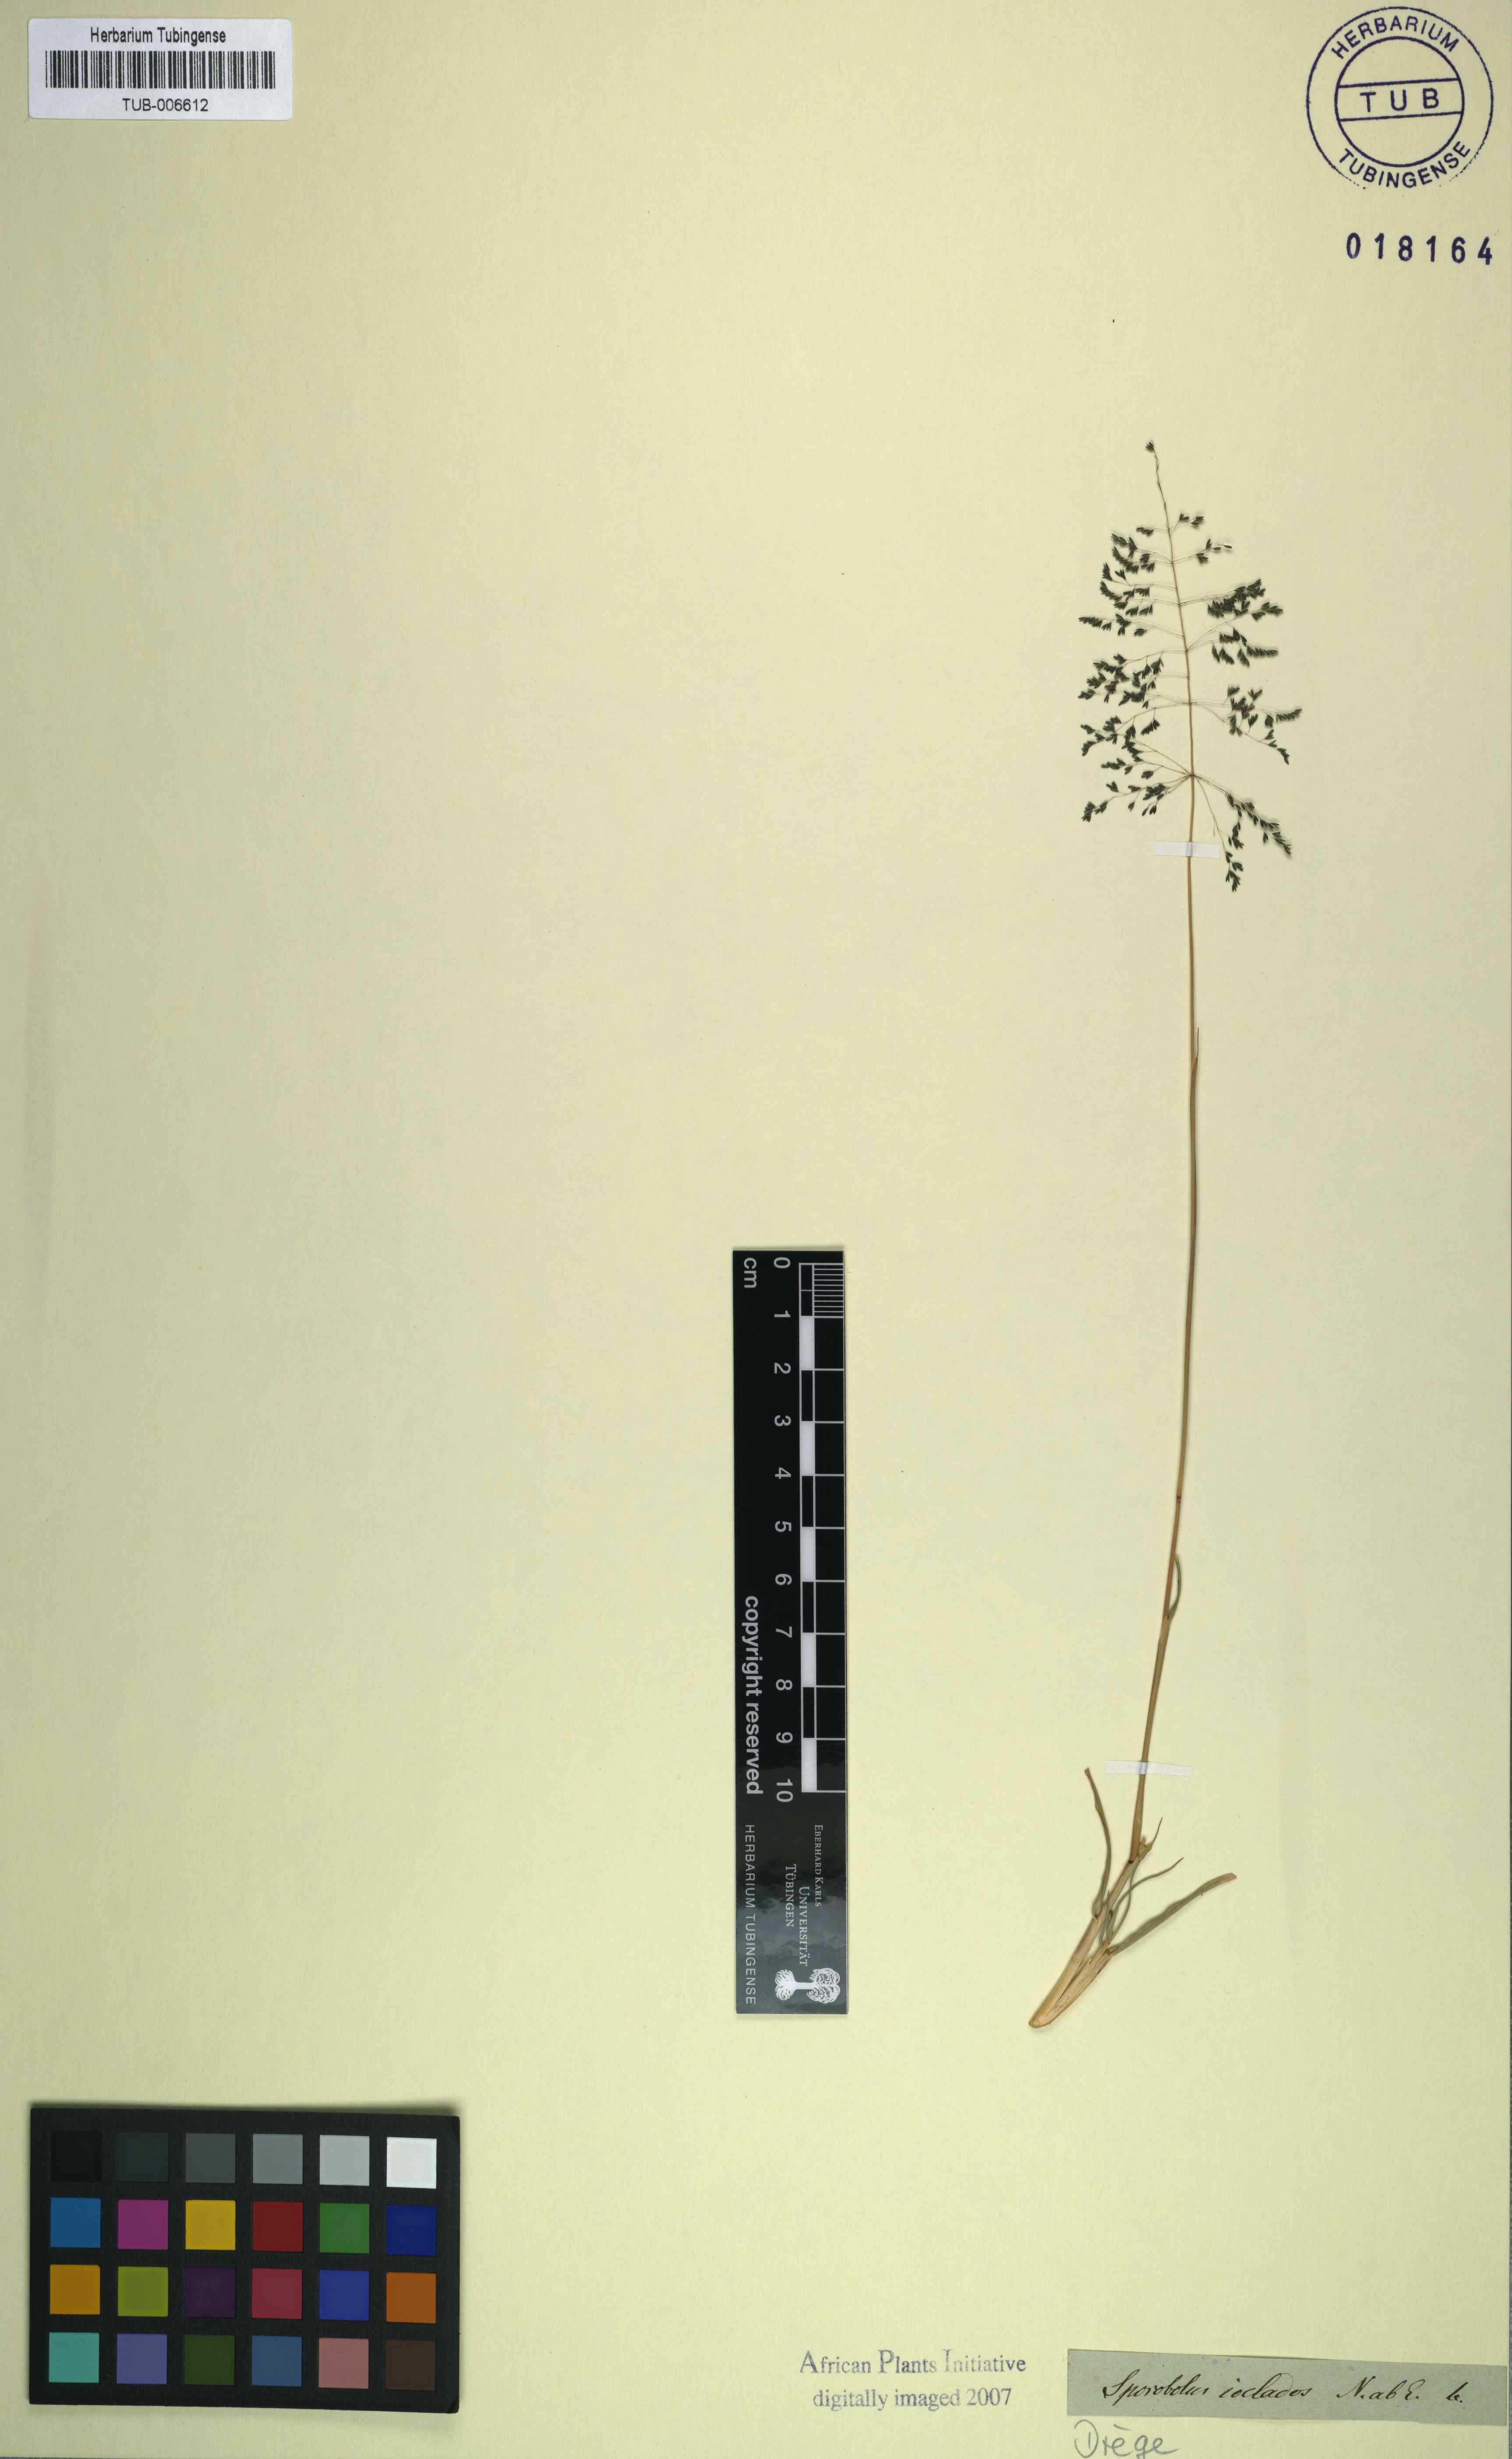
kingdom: Plantae
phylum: Tracheophyta
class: Liliopsida
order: Poales
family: Poaceae
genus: Sporobolus
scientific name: Sporobolus ioclados
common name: Pan dropseed
